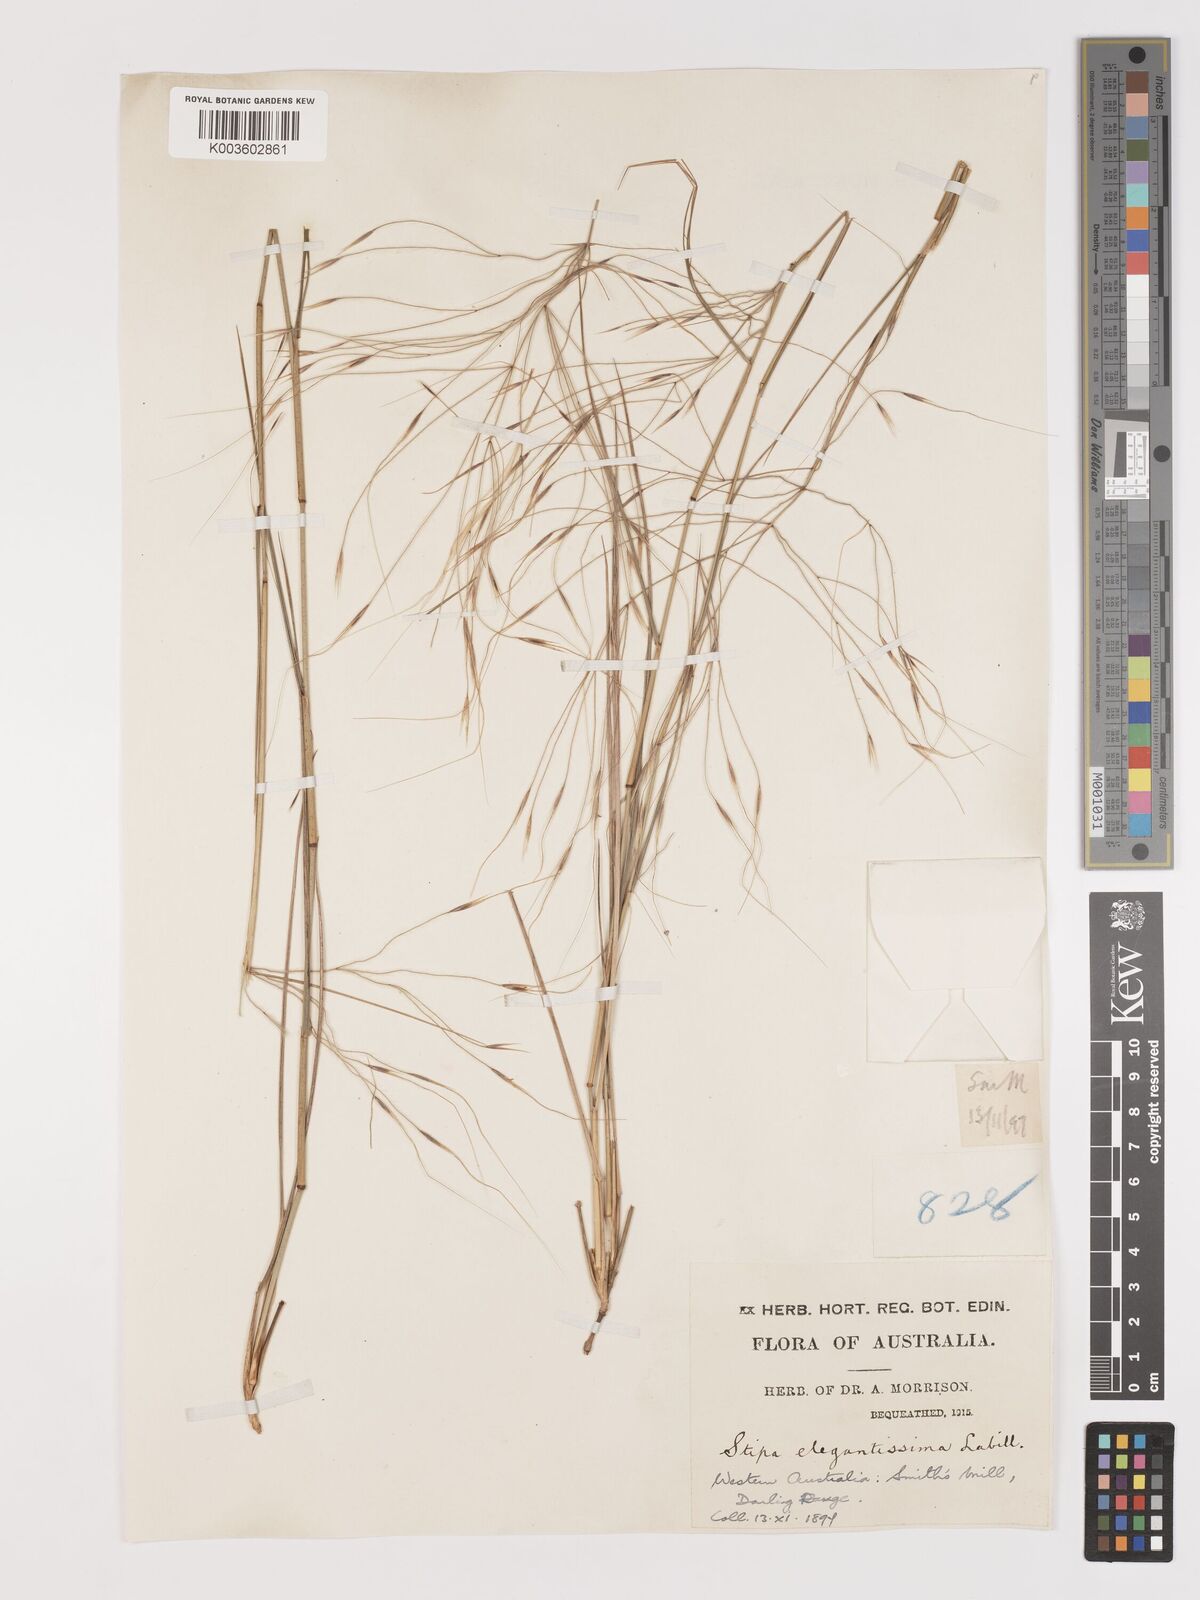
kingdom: Plantae
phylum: Tracheophyta
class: Liliopsida
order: Poales
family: Poaceae
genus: Austrostipa
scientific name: Austrostipa elegantissima
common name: Feather spear grass
